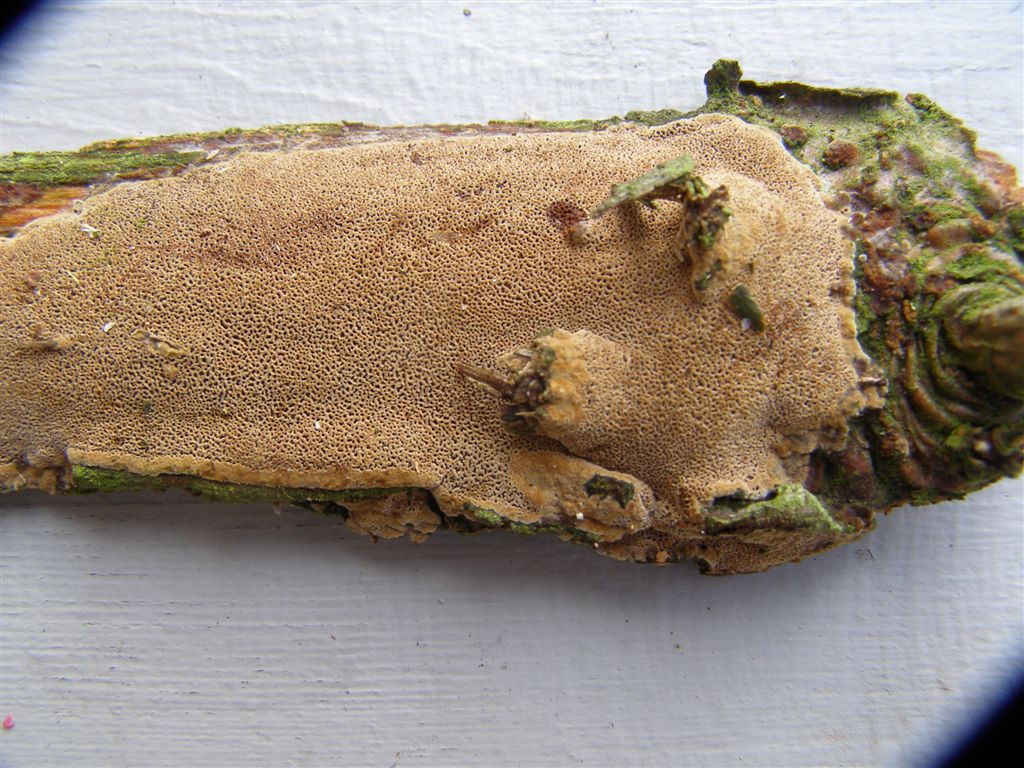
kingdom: Fungi
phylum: Basidiomycota
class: Agaricomycetes
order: Hymenochaetales
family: Hymenochaetaceae
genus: Fuscoporia
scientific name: Fuscoporia contigua
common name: grov ildporesvamp
